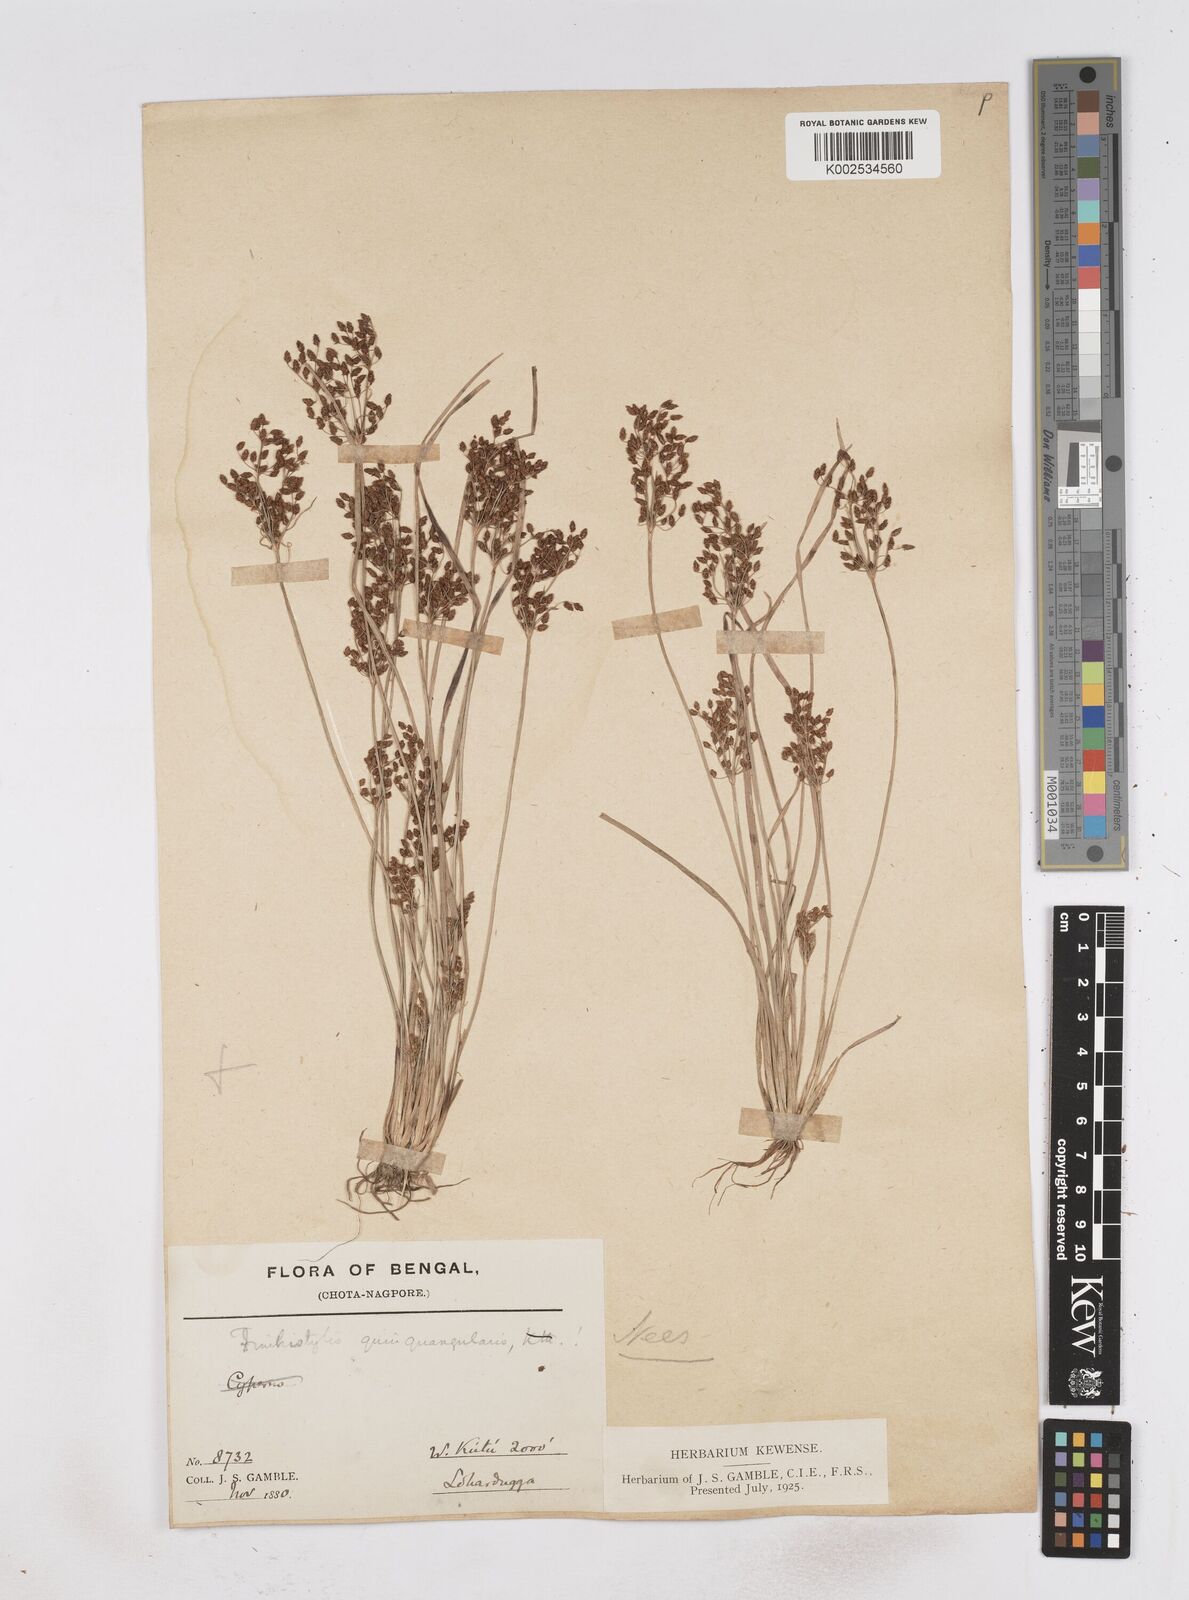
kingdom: Plantae
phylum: Tracheophyta
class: Liliopsida
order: Poales
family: Cyperaceae
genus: Fimbristylis
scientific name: Fimbristylis quinquangularis
